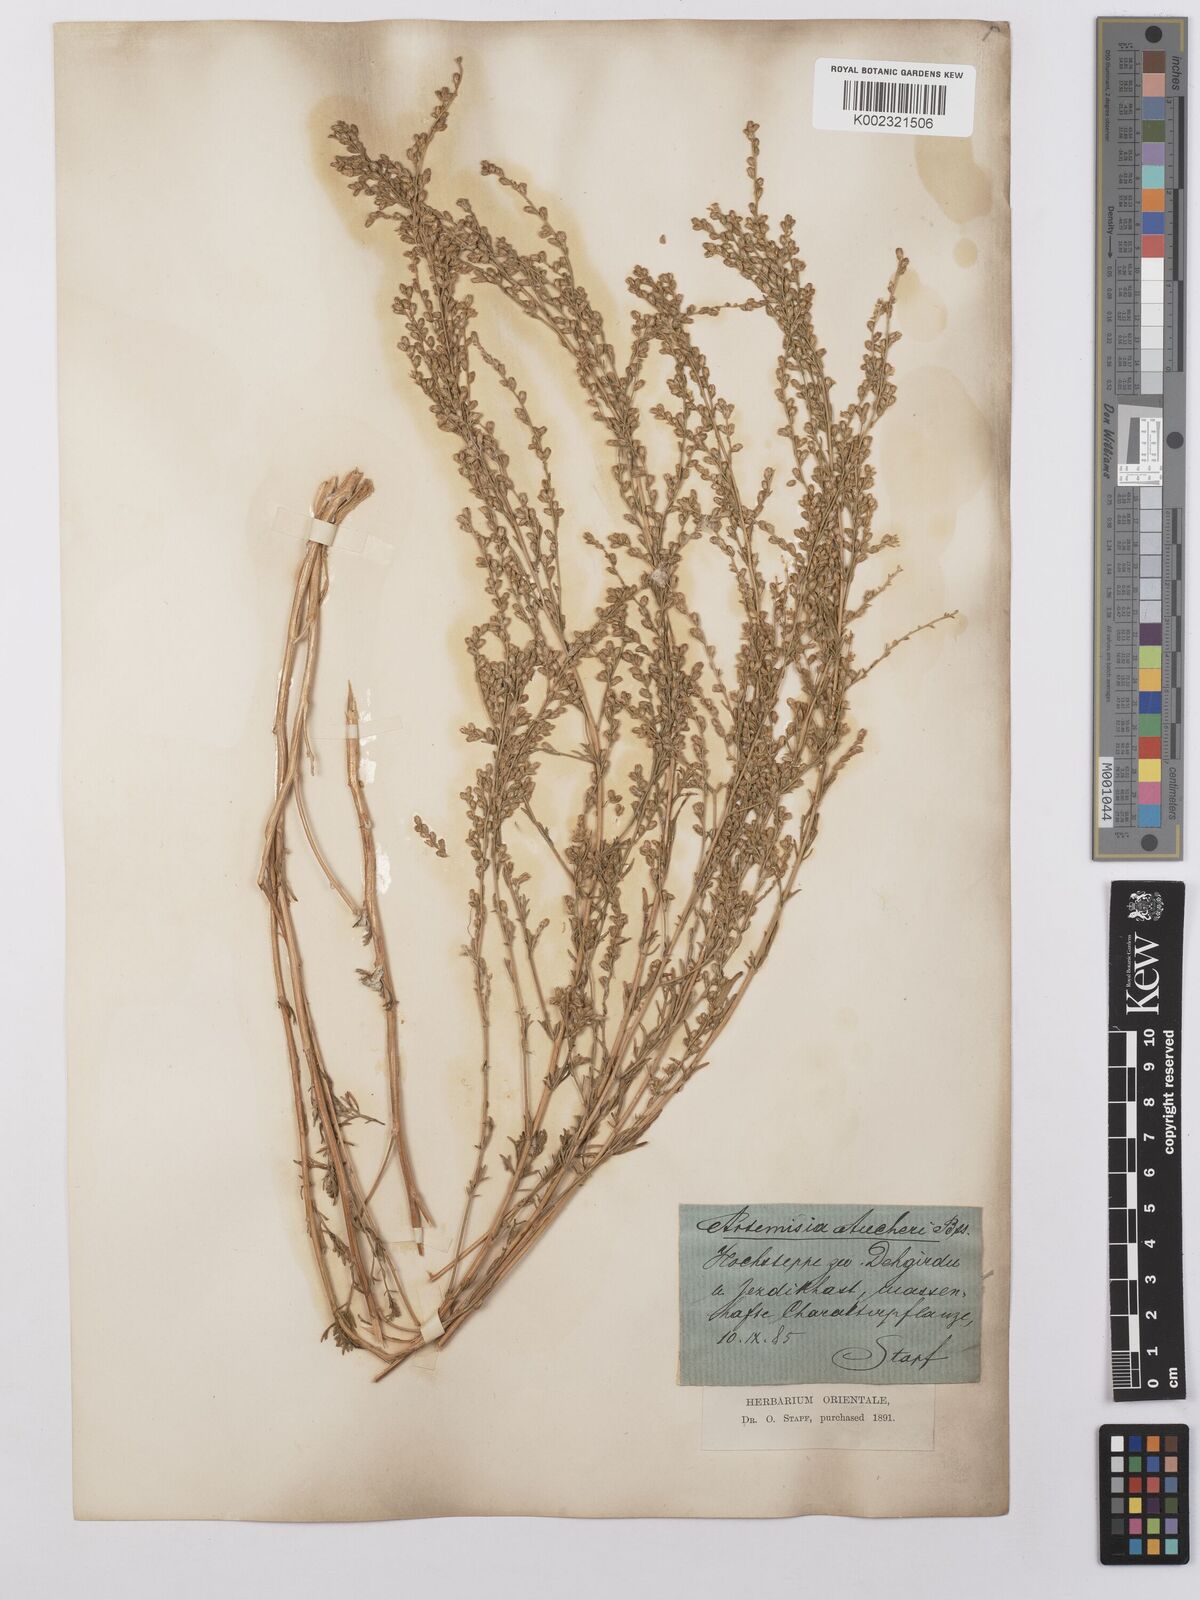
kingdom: Plantae
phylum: Tracheophyta
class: Magnoliopsida
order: Asterales
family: Asteraceae
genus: Artemisia
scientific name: Artemisia aucheri
